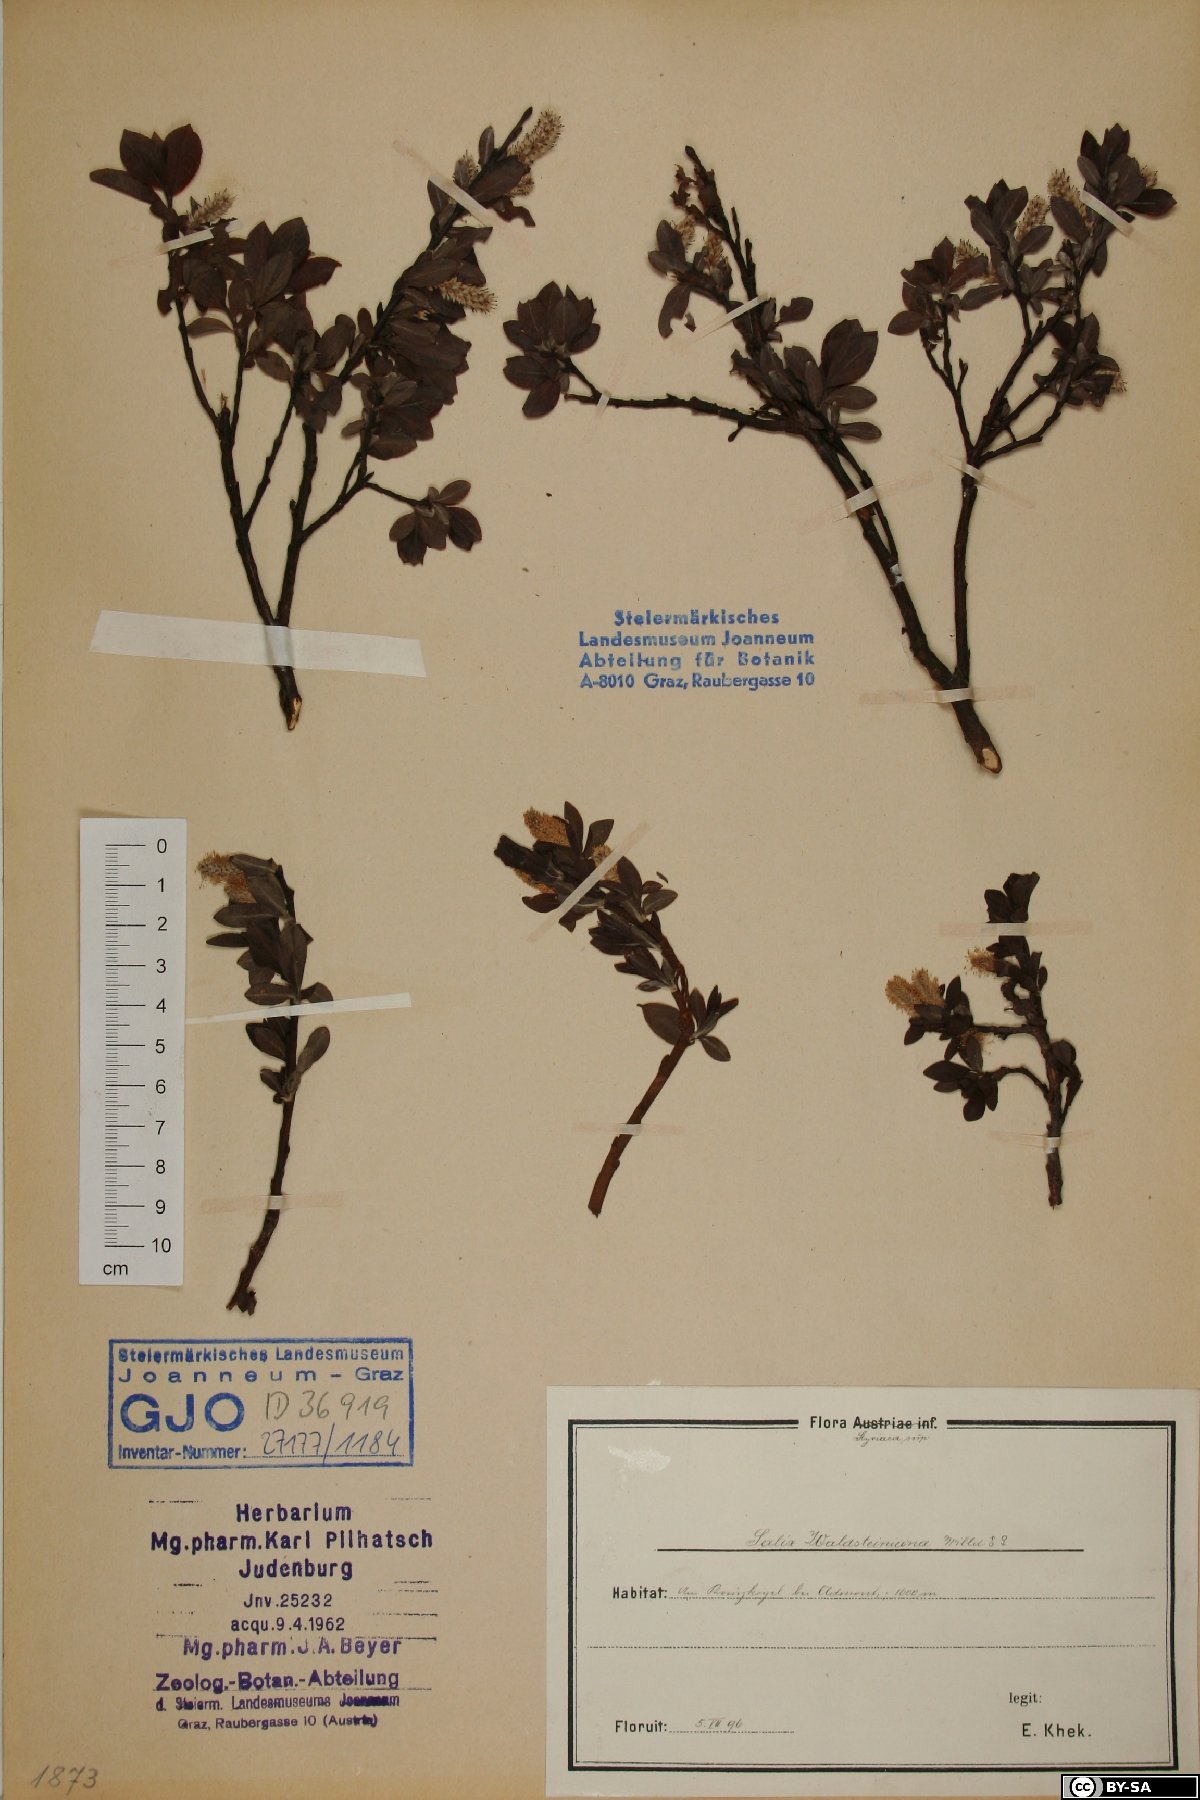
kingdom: Plantae
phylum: Tracheophyta
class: Magnoliopsida
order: Malpighiales
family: Salicaceae
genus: Salix
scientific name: Salix waldsteiniana
